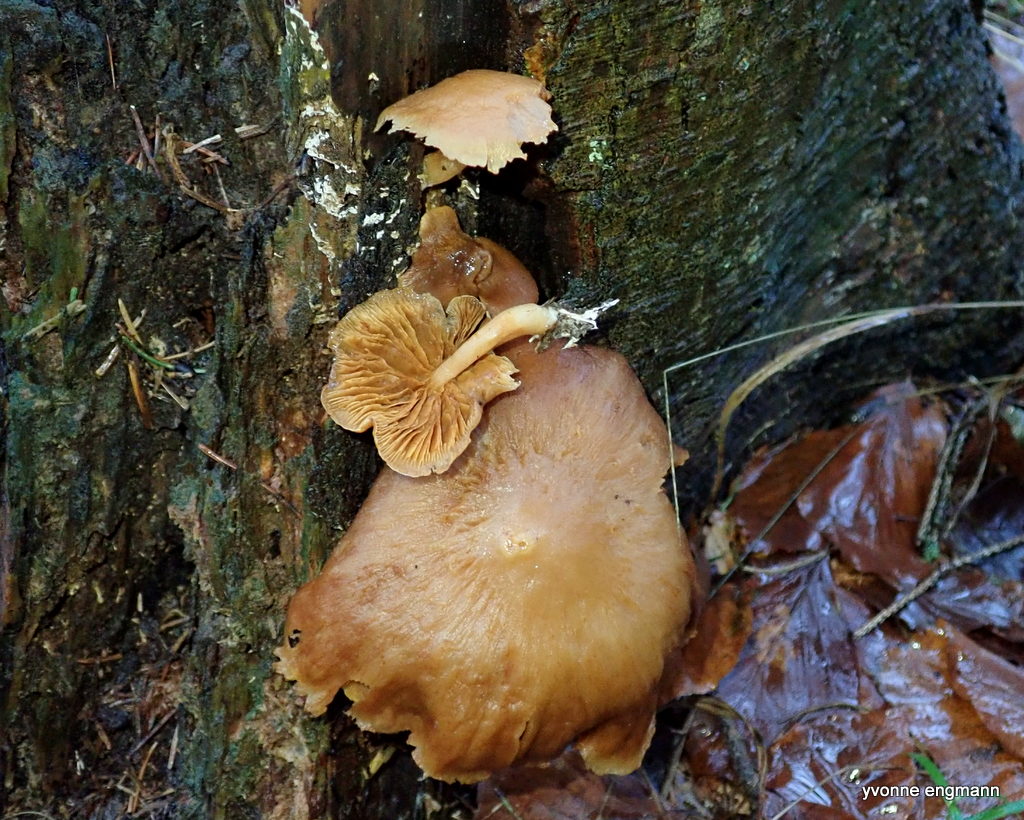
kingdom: Fungi
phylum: Basidiomycota
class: Agaricomycetes
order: Agaricales
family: Hymenogastraceae
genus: Gymnopilus
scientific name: Gymnopilus penetrans
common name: plettet flammehat
